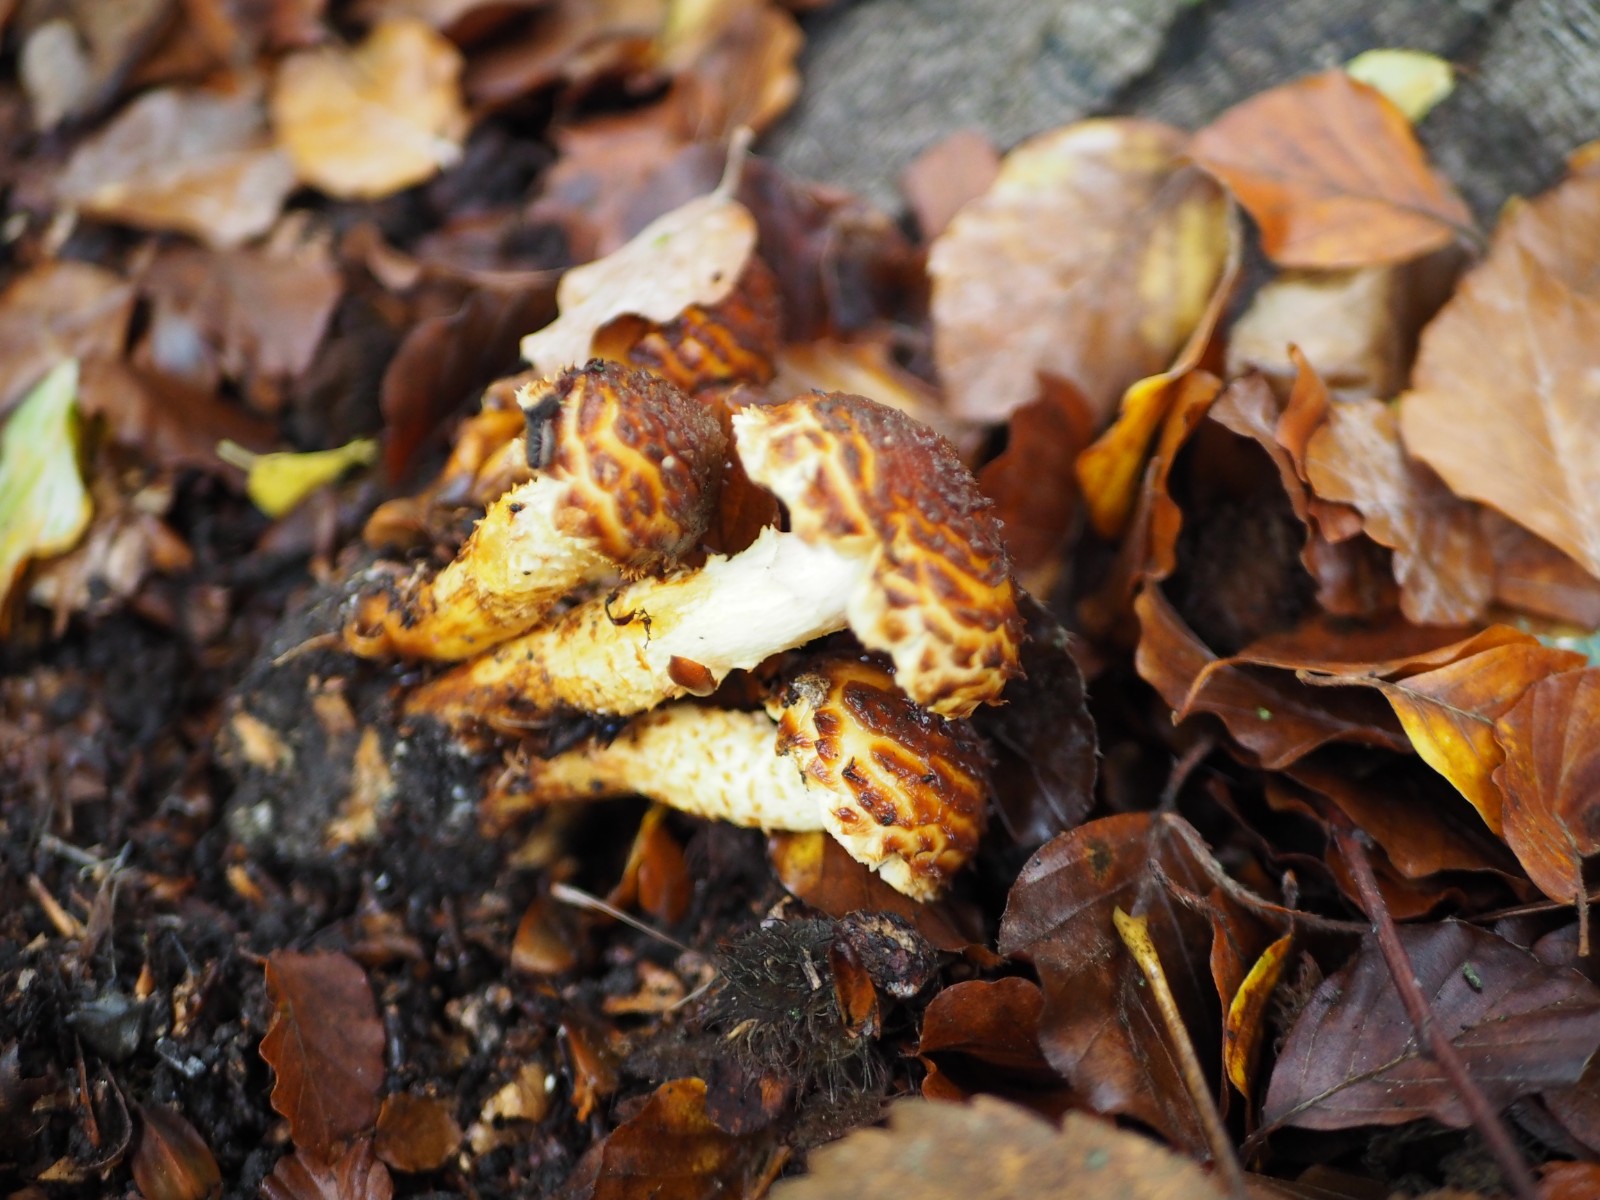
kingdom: Fungi
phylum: Basidiomycota
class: Agaricomycetes
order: Agaricales
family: Strophariaceae
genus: Pholiota
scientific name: Pholiota jahnii
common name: slimet skælhat
